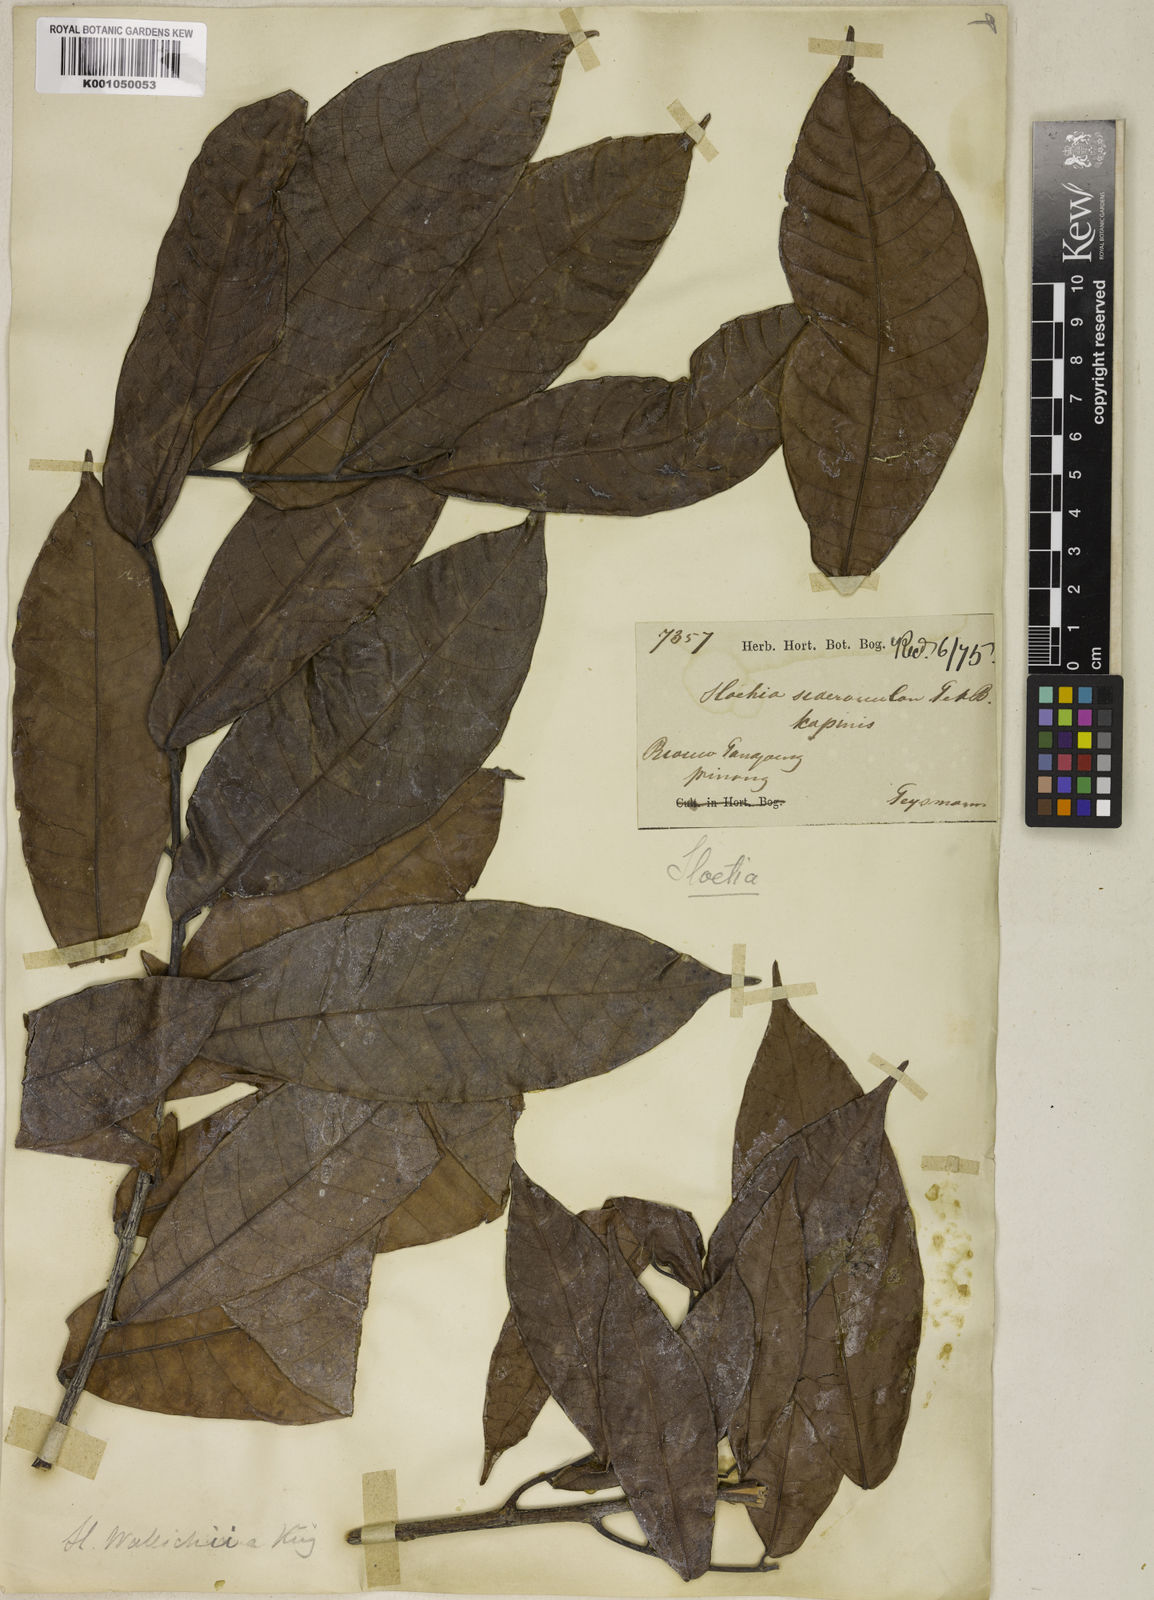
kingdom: Plantae
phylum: Tracheophyta
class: Magnoliopsida
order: Rosales
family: Moraceae
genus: Sloetia
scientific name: Sloetia elongata
